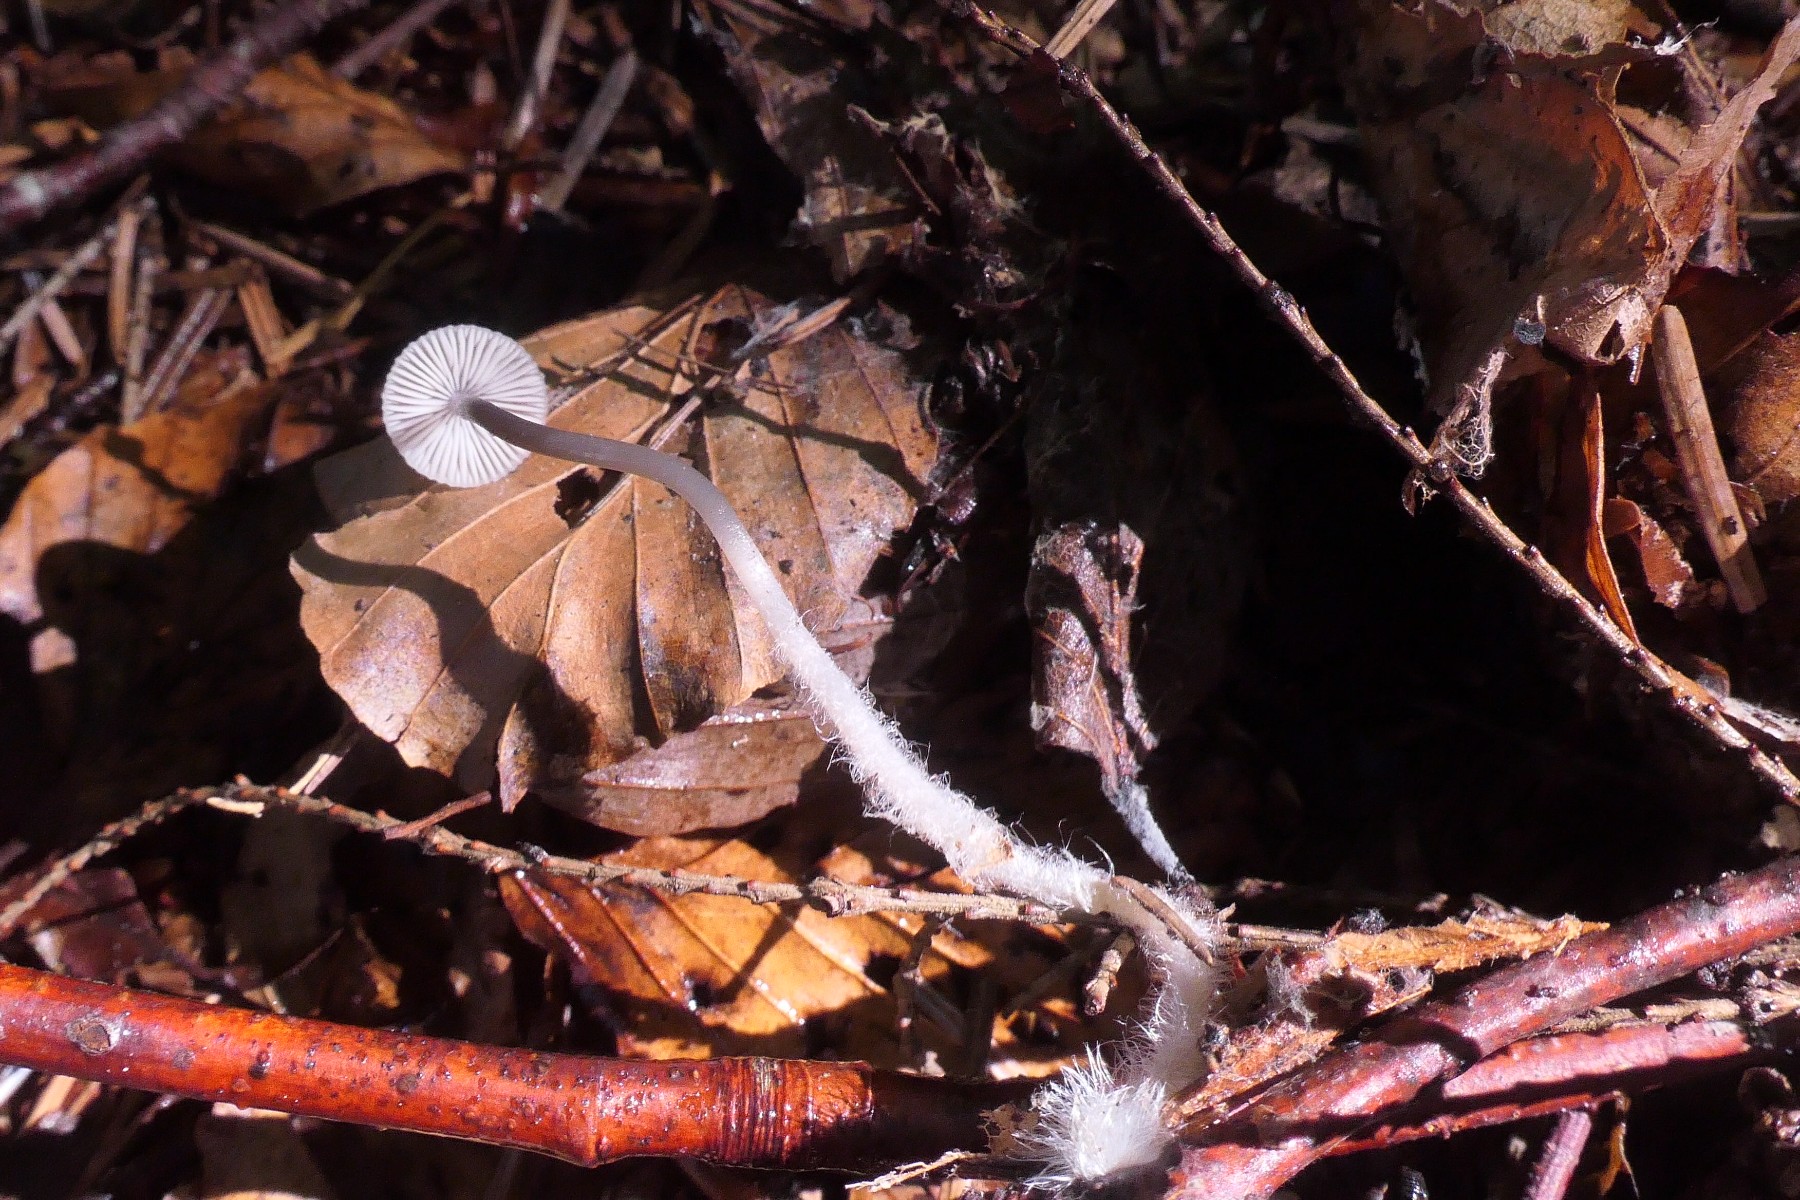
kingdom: Fungi
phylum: Basidiomycota
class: Agaricomycetes
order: Agaricales
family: Mycenaceae
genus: Mycena
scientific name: Mycena vitilis
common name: blankstokket huesvamp
